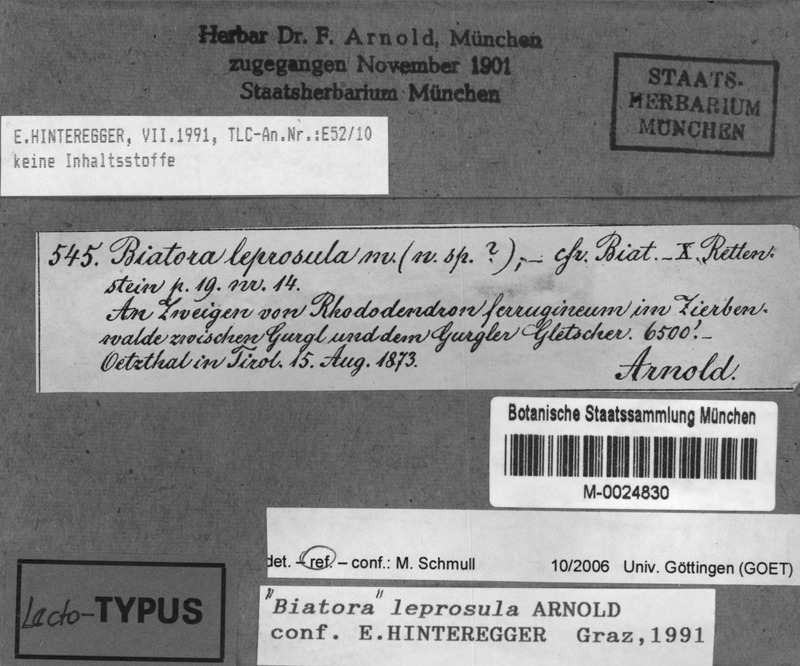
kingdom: Fungi
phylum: Ascomycota
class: Lecanoromycetes
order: Lecanorales
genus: Myochroidea
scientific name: Myochroidea leprosula
